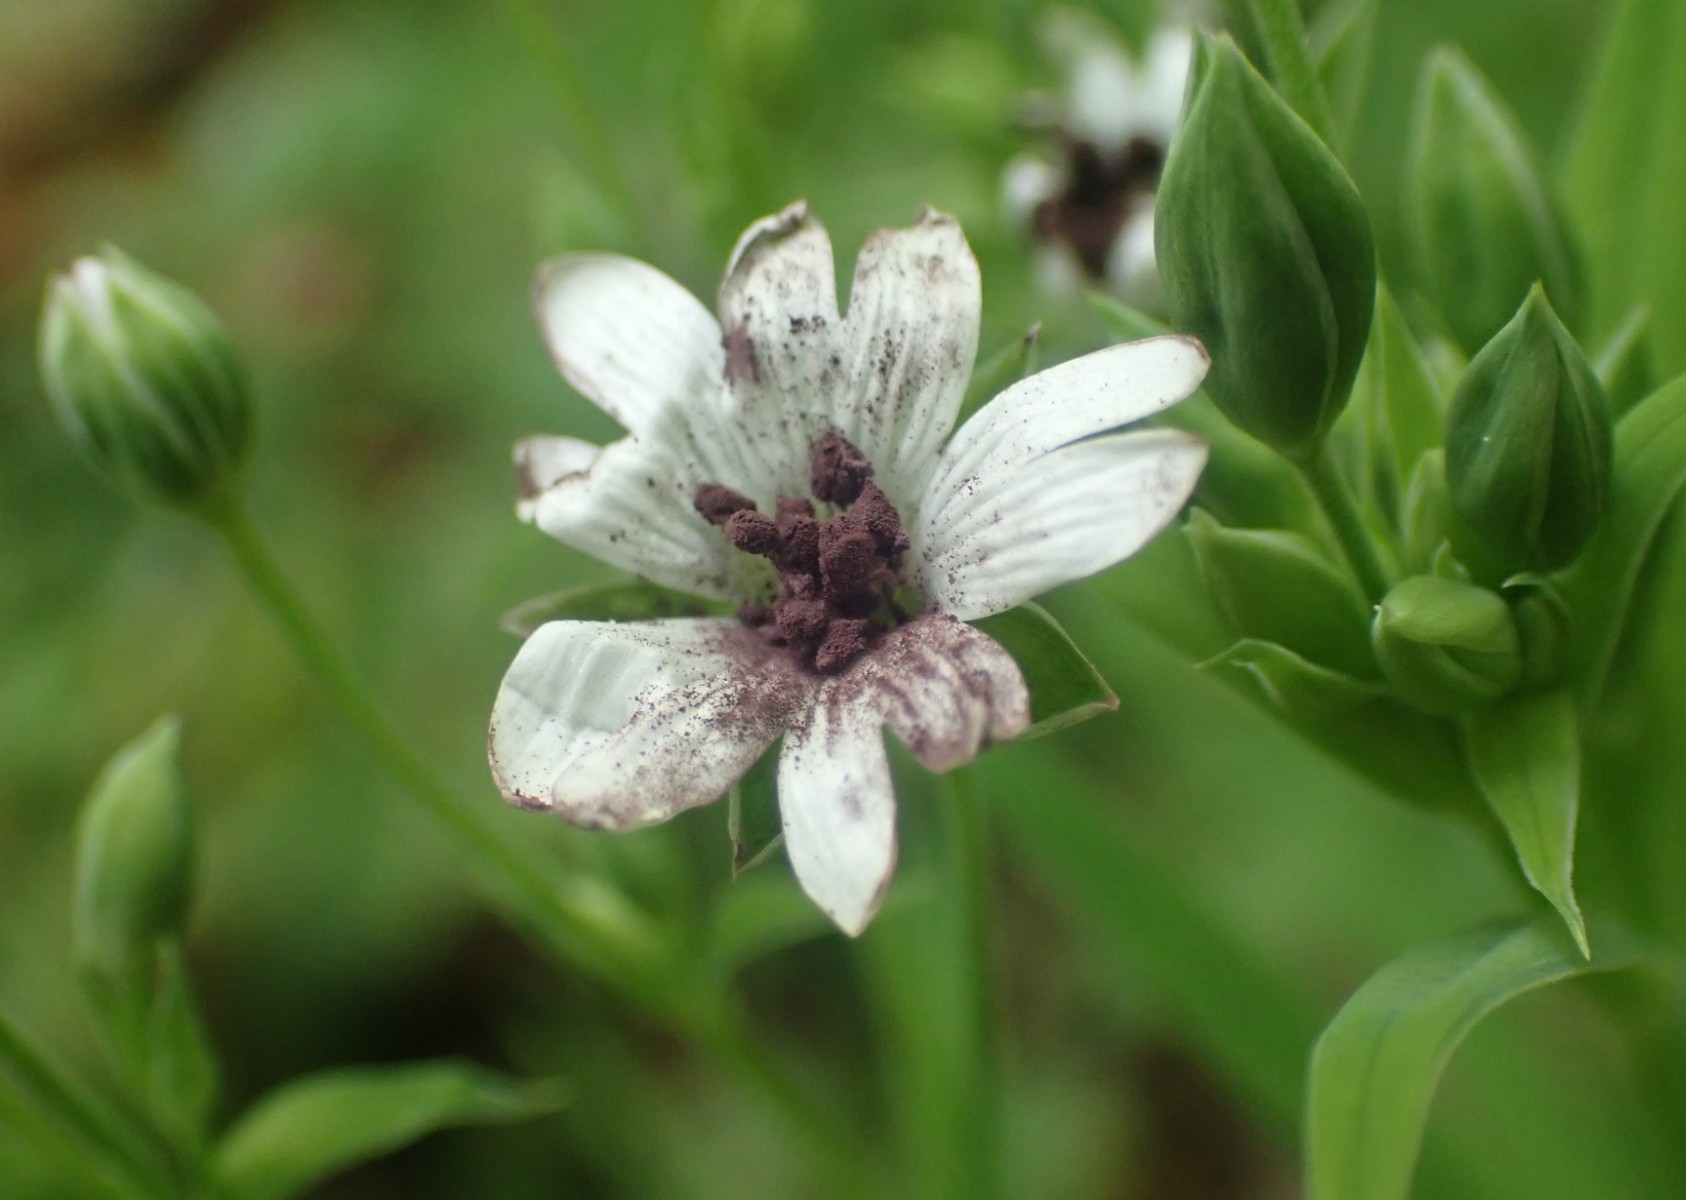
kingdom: Fungi
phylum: Basidiomycota
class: Microbotryomycetes
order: Microbotryales
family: Microbotryaceae
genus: Microbotryum
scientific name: Microbotryum stellariae
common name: fladstjerne-støvbladrust
